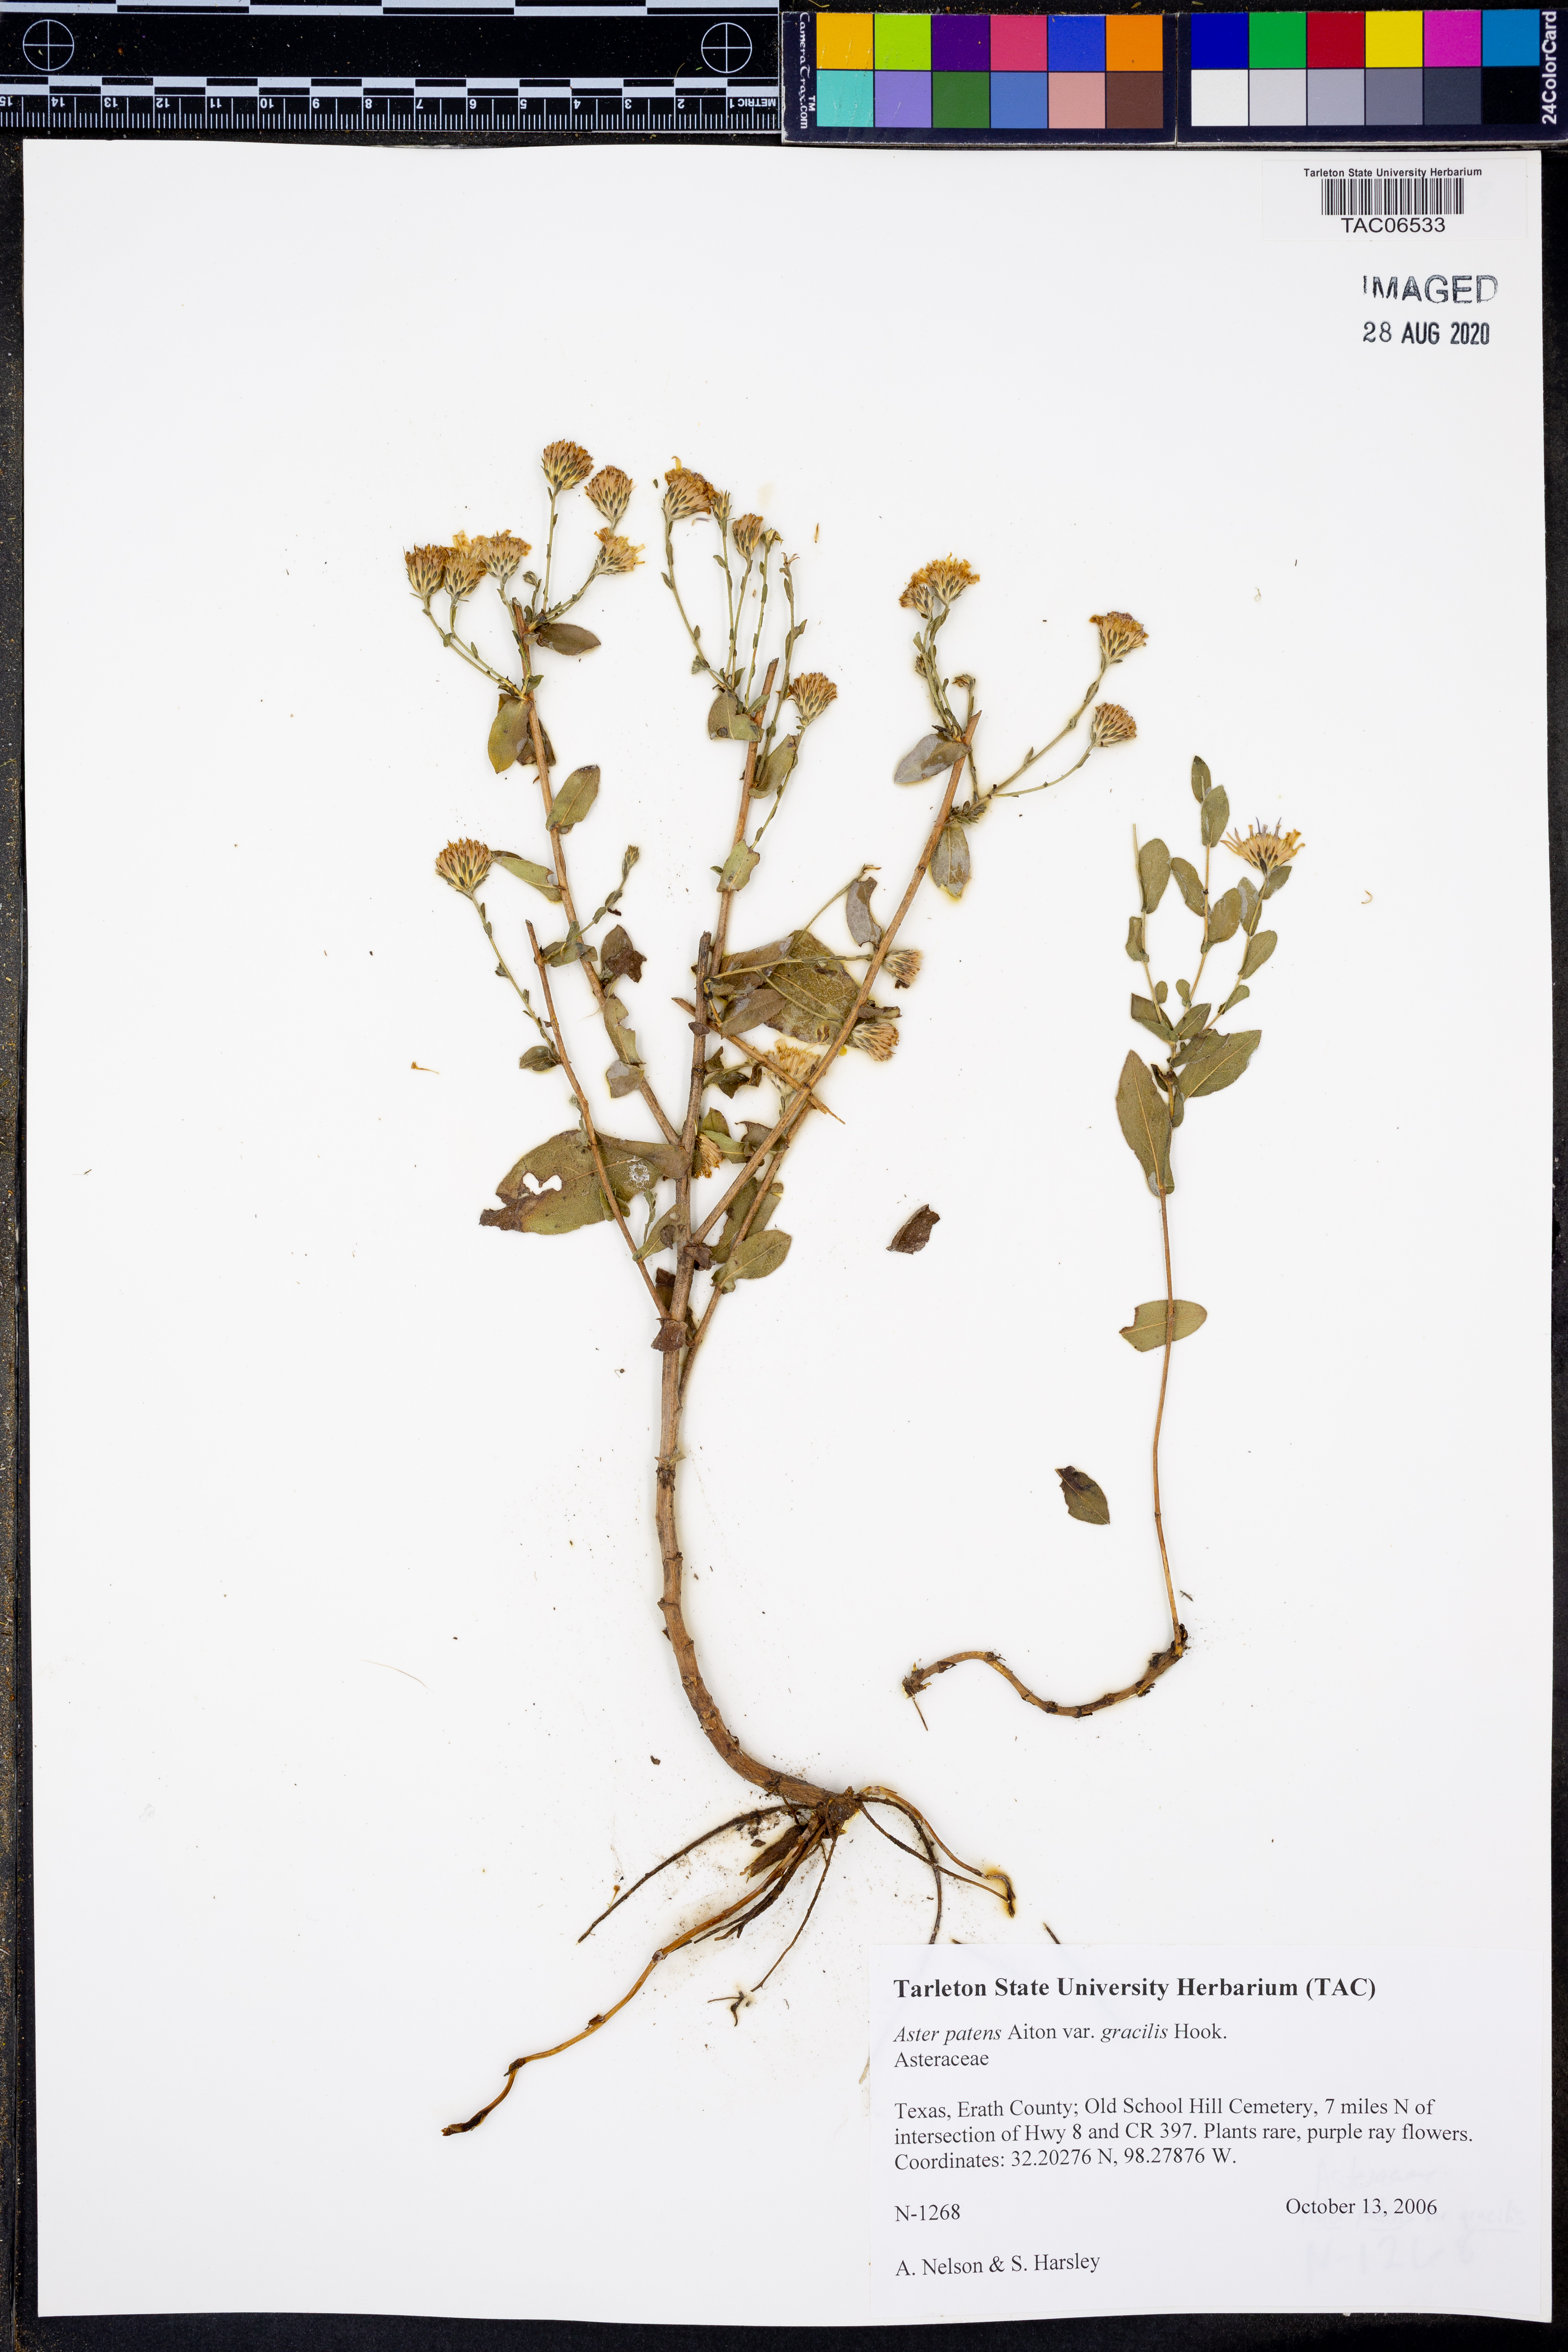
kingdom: Plantae
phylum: Tracheophyta
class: Magnoliopsida
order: Asterales
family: Asteraceae
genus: Symphyotrichum
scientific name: Symphyotrichum patens
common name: Late purple aster
